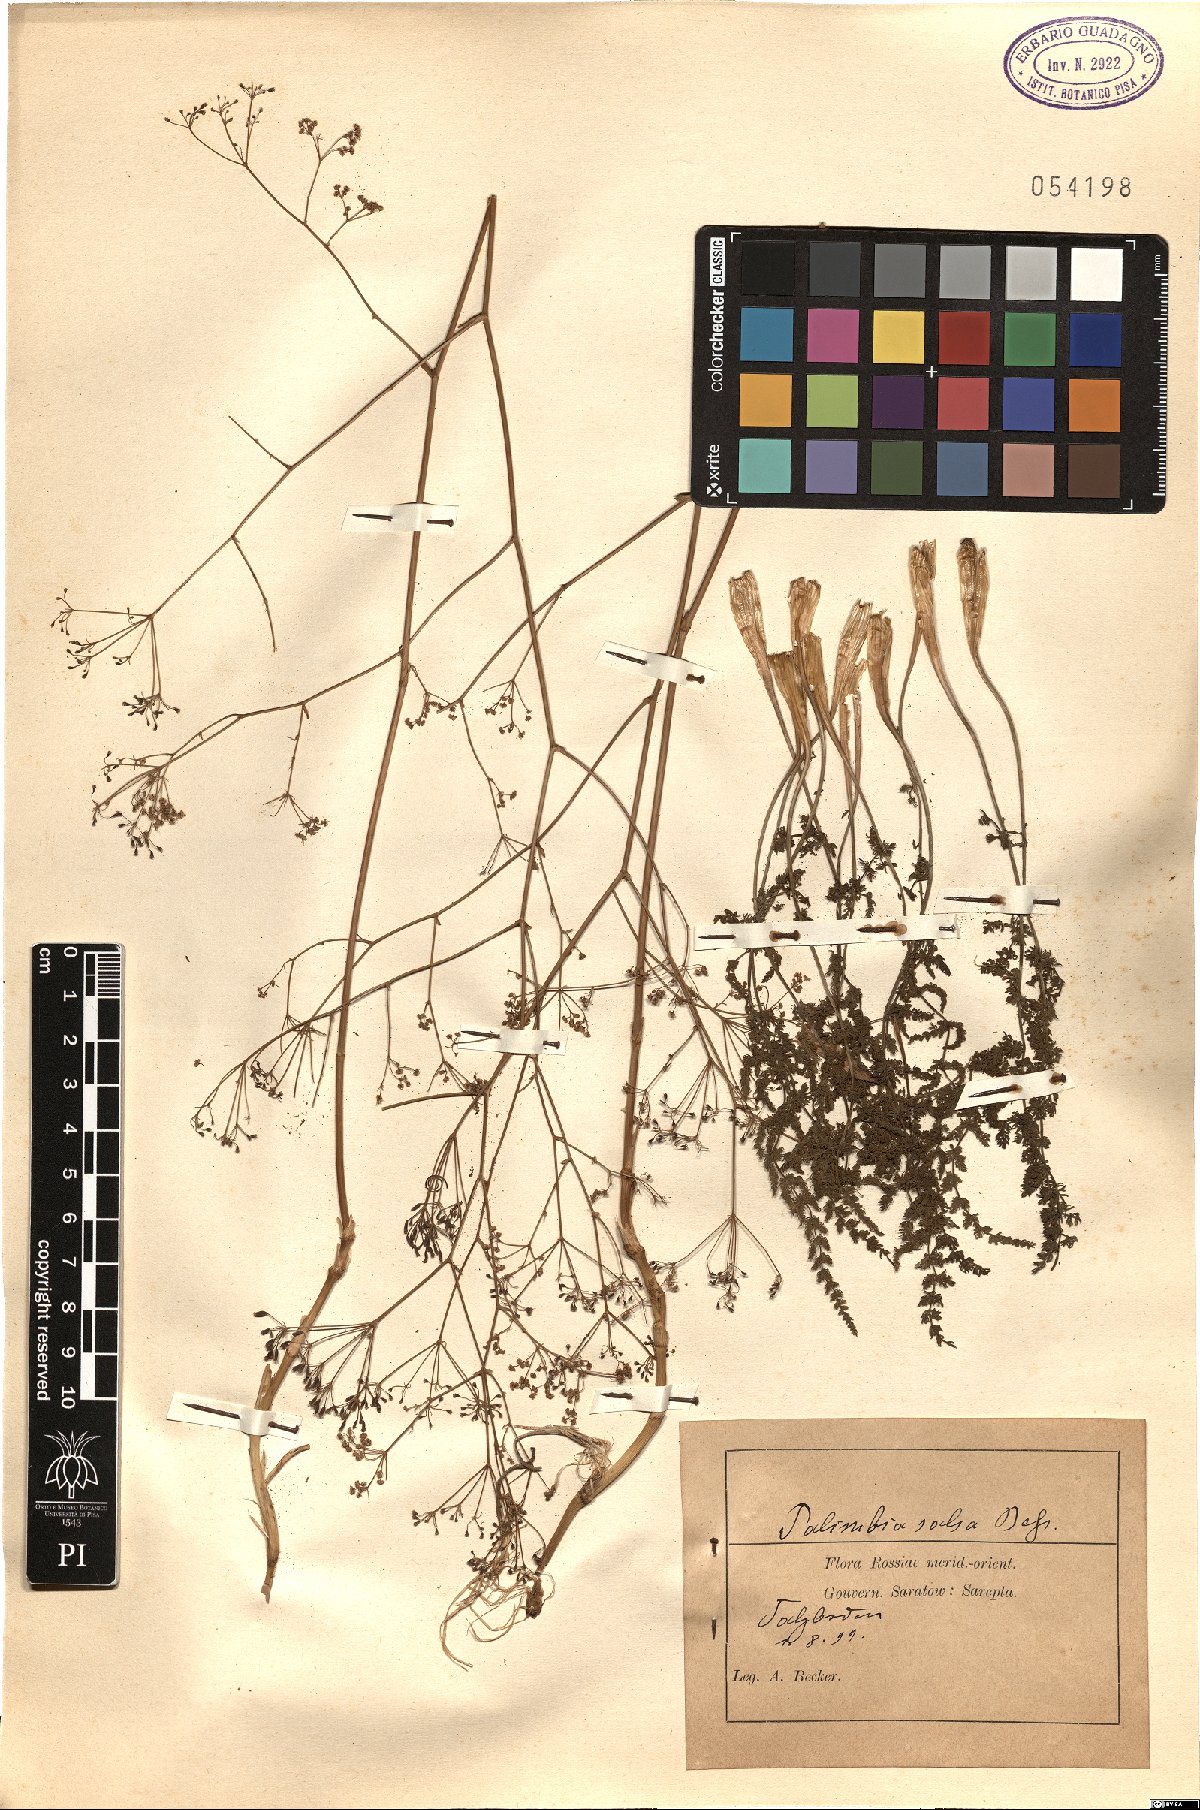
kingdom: Plantae
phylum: Tracheophyta
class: Magnoliopsida
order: Apiales
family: Apiaceae
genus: Palimbia
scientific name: Palimbia rediviva
